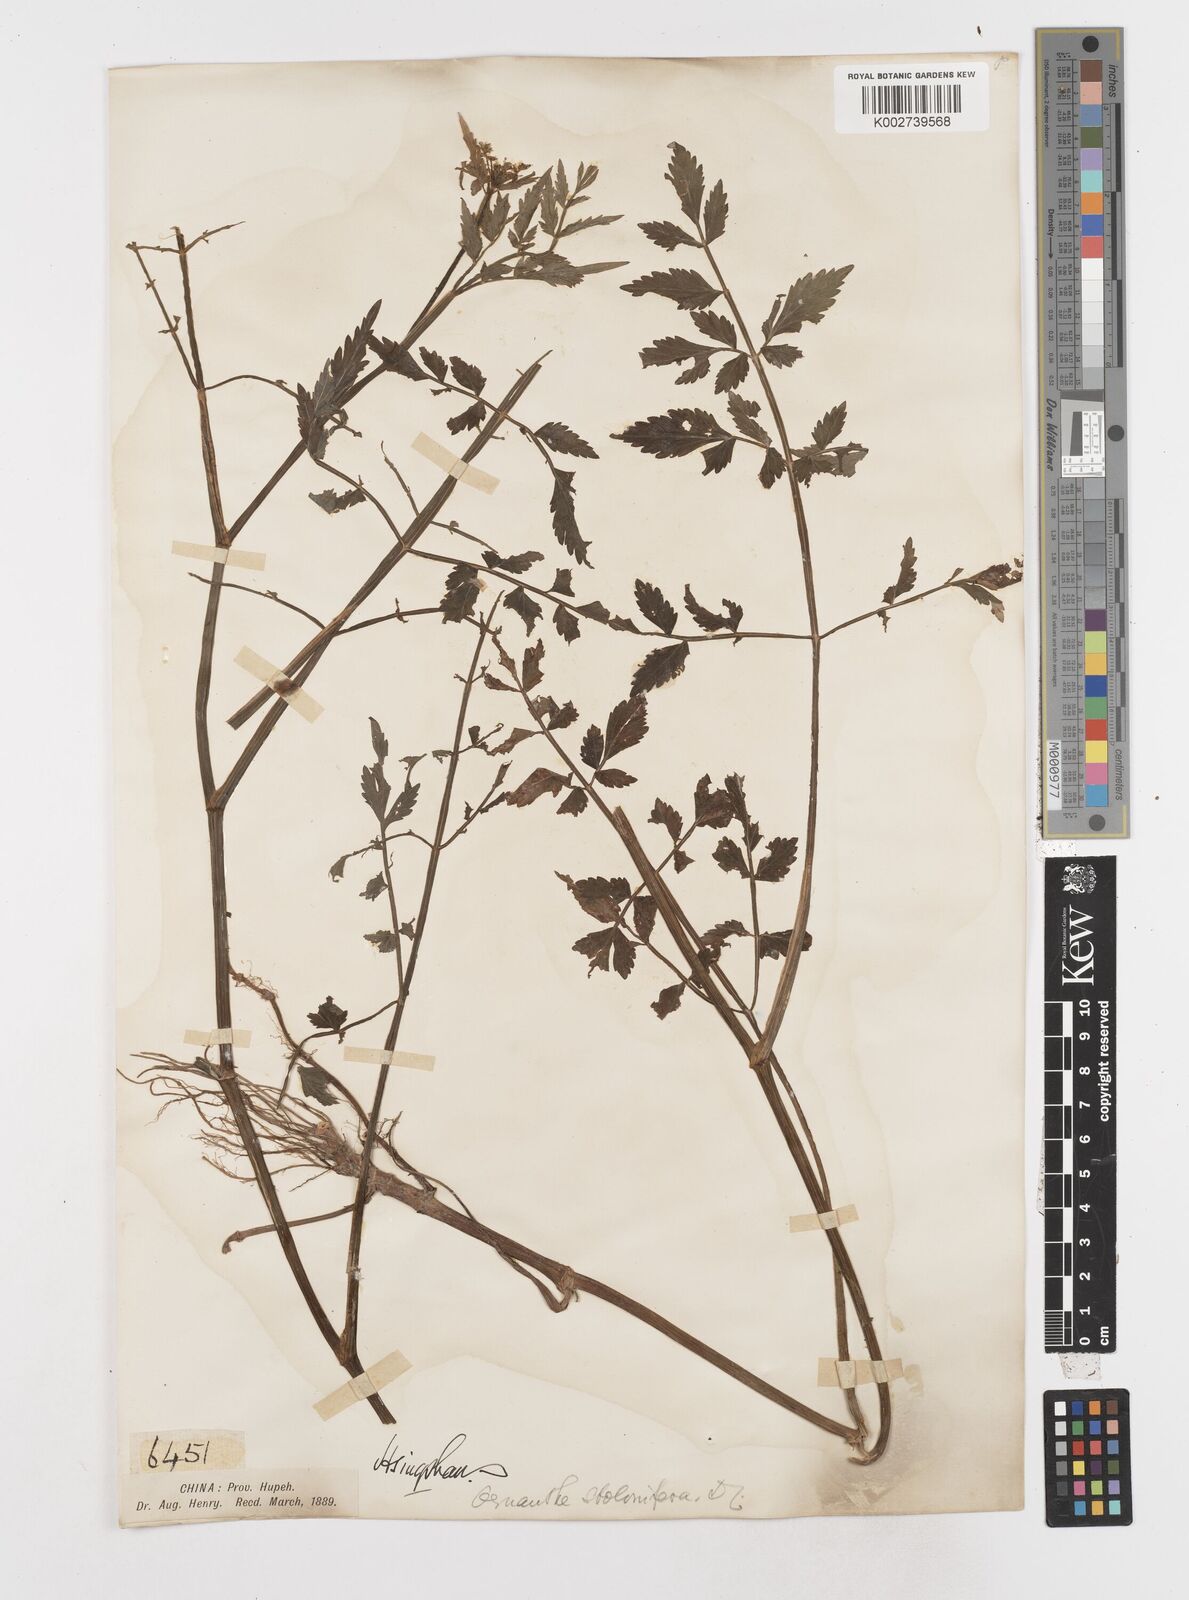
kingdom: Plantae
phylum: Tracheophyta
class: Magnoliopsida
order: Apiales
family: Apiaceae
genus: Oenanthe
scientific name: Oenanthe javanica
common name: Java water-dropwort
